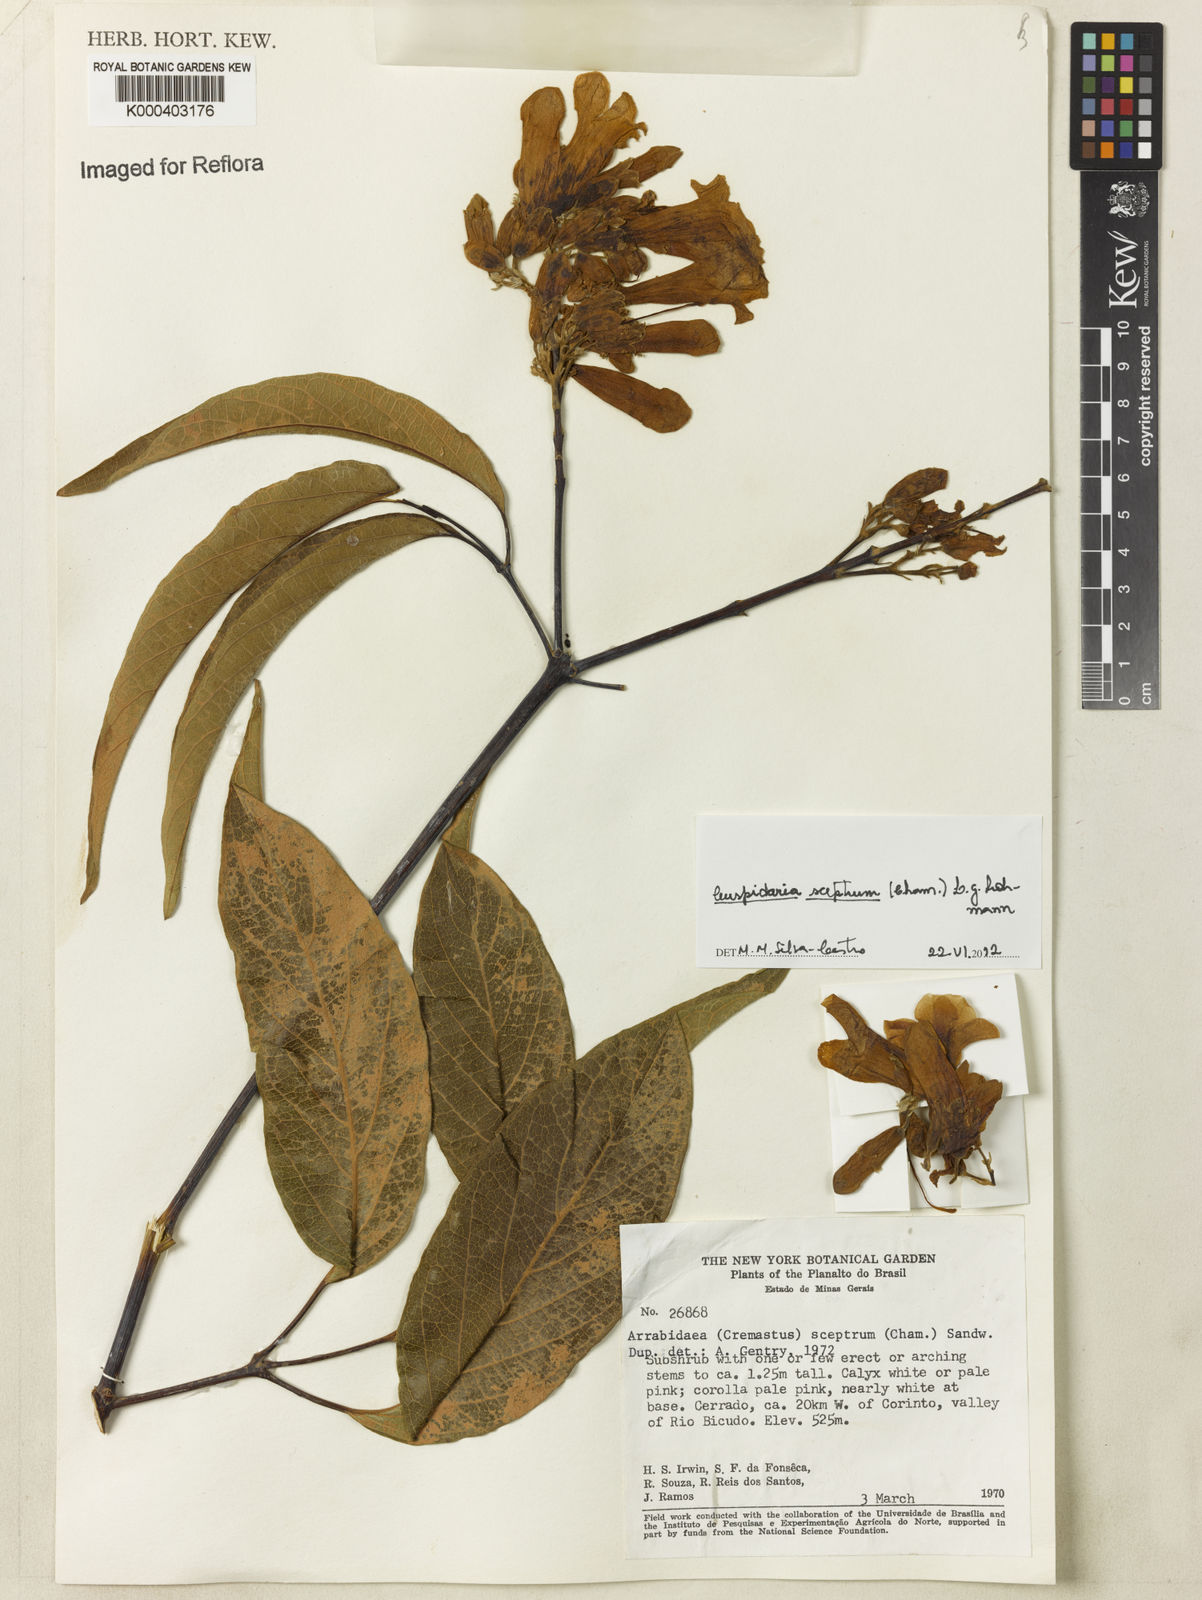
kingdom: Plantae
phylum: Tracheophyta
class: Magnoliopsida
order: Lamiales
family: Bignoniaceae
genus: Cuspidaria
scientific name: Cuspidaria
